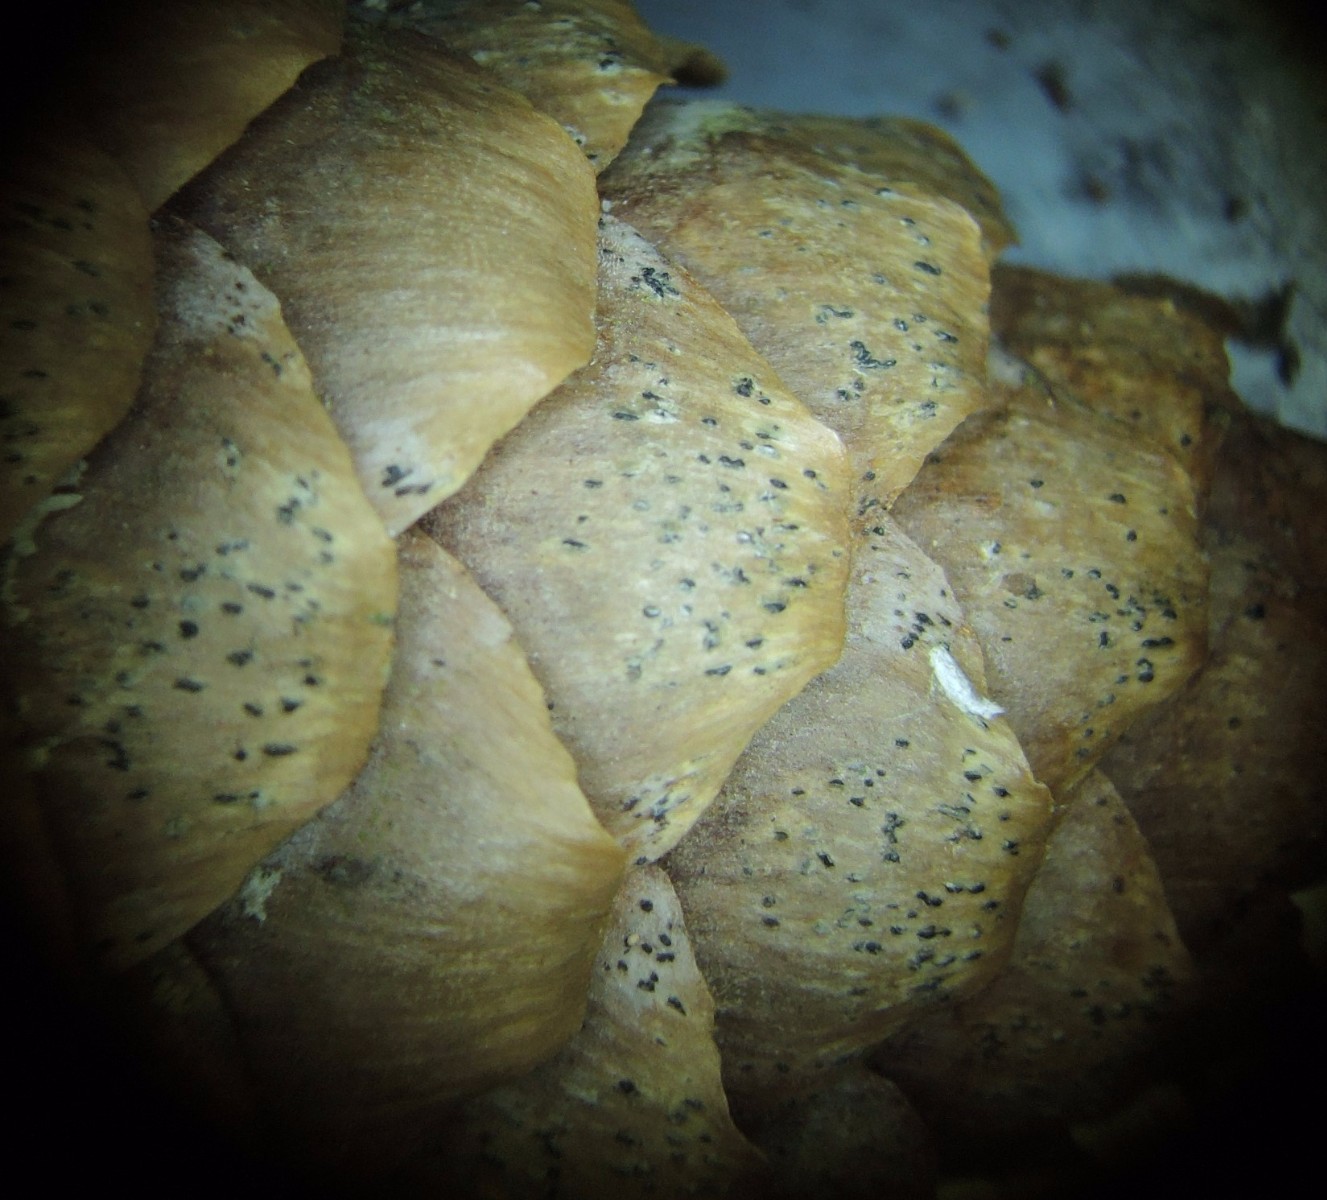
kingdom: Fungi
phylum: Ascomycota
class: Sordariomycetes
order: Diaporthales
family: Gnomoniaceae
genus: Sirococcus
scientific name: Sirococcus conigenus
